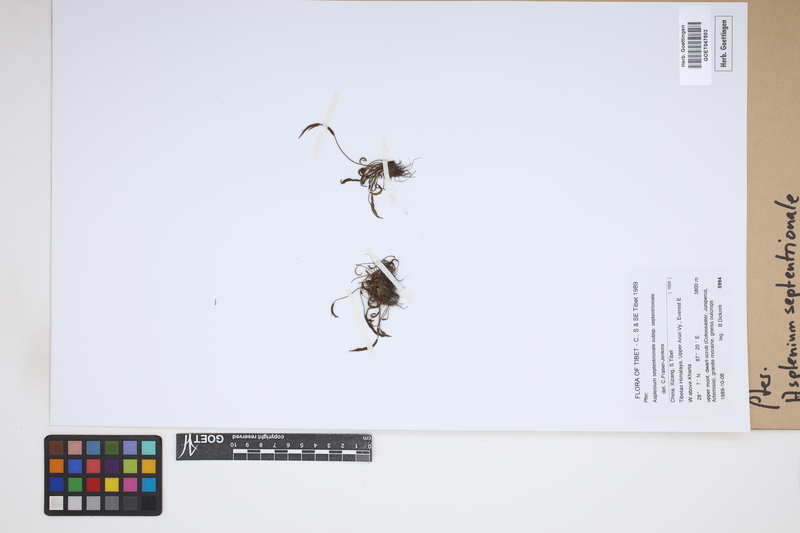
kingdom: Plantae
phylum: Tracheophyta
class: Polypodiopsida
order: Polypodiales
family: Aspleniaceae
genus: Asplenium
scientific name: Asplenium septentrionale
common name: Forked spleenwort
